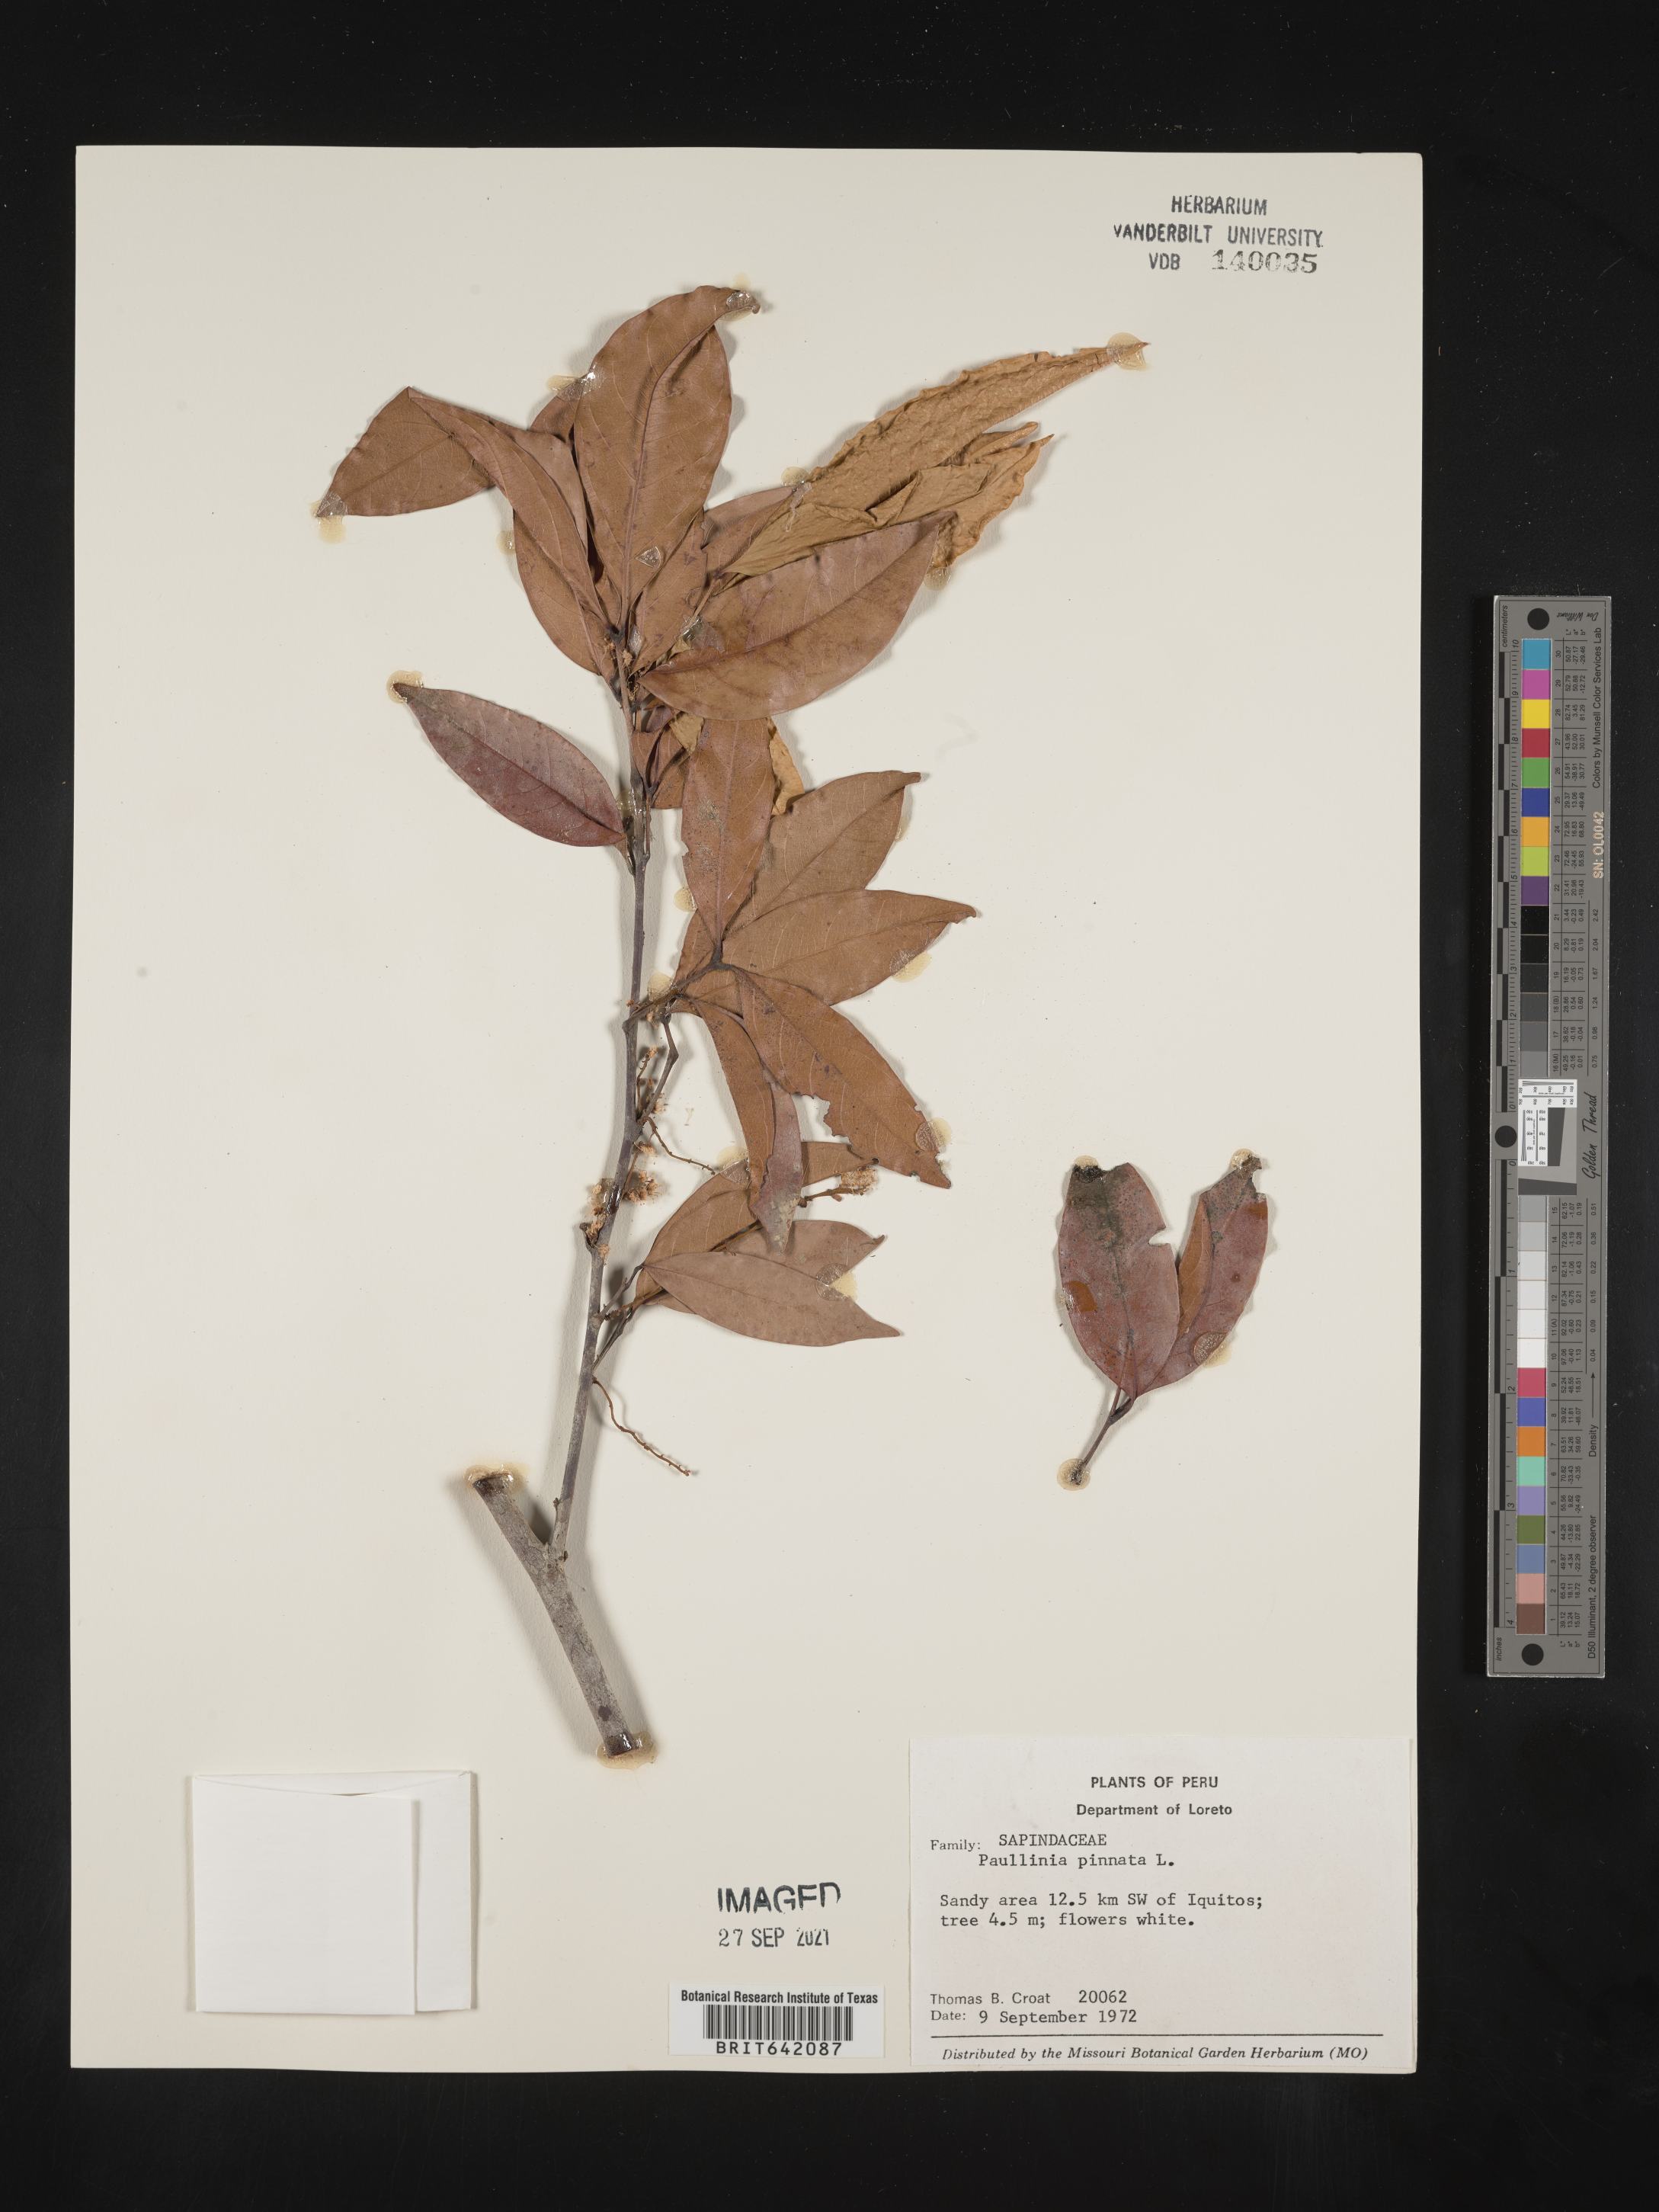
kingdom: Plantae
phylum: Tracheophyta
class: Magnoliopsida
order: Sapindales
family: Sapindaceae
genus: Paullinia
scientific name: Paullinia
